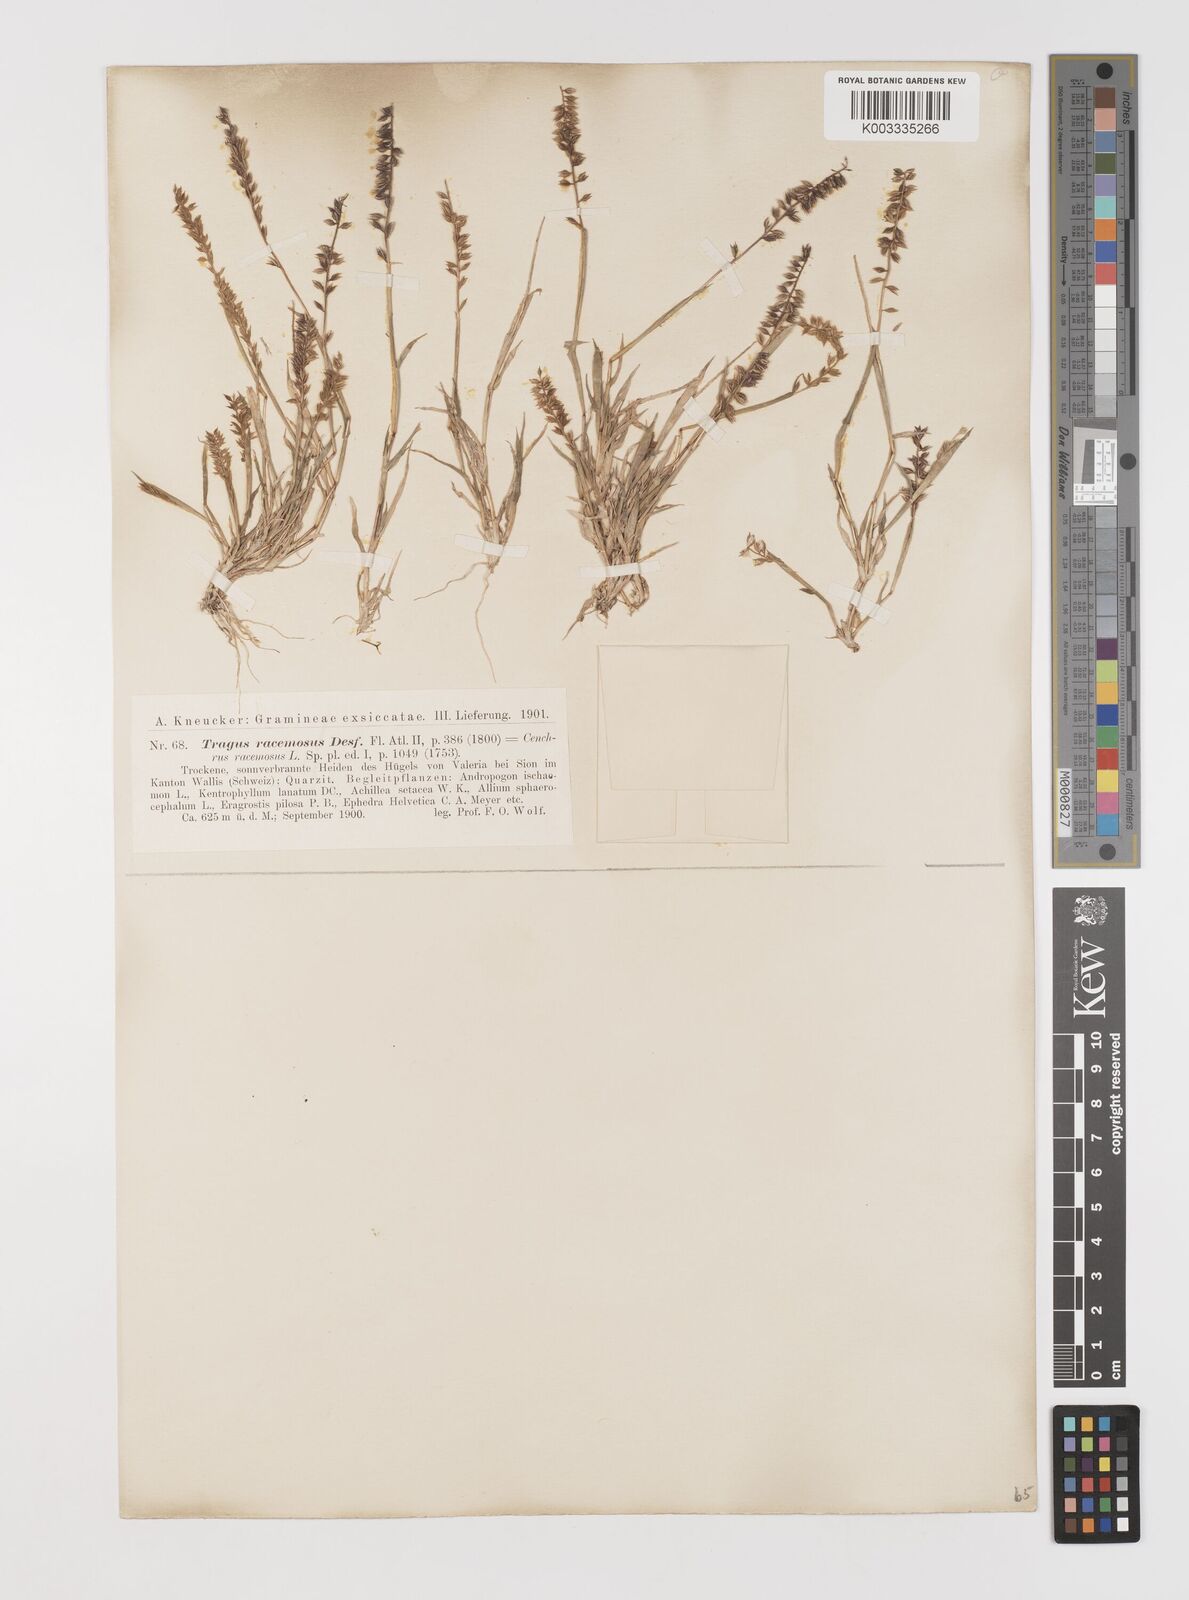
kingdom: Plantae
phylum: Tracheophyta
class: Liliopsida
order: Poales
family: Poaceae
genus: Tragus
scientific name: Tragus racemosus
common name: European bur-grass
